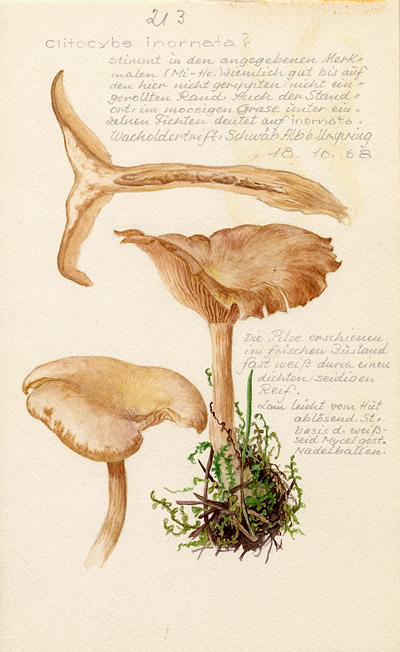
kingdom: Fungi
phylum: Basidiomycota
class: Agaricomycetes
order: Agaricales
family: Tricholomataceae
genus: Atractosporocybe
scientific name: Atractosporocybe inornata
